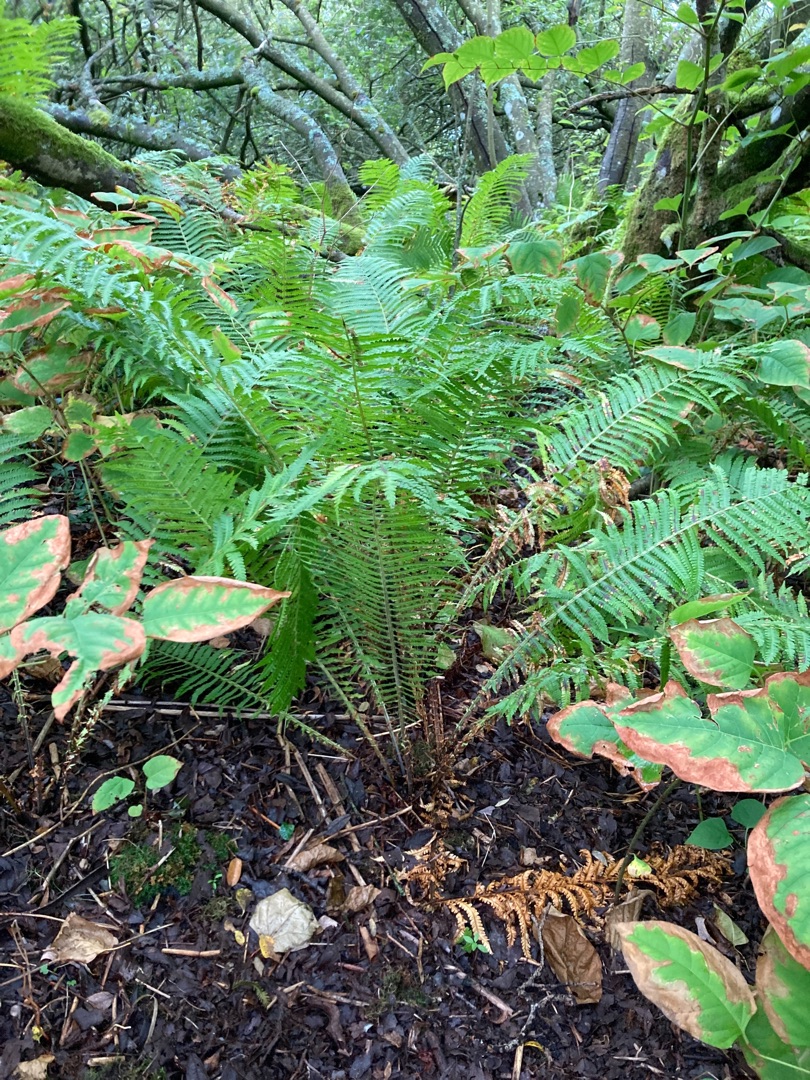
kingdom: Plantae
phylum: Tracheophyta
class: Polypodiopsida
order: Polypodiales
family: Onocleaceae
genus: Matteuccia
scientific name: Matteuccia struthiopteris
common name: Strudsvinge
